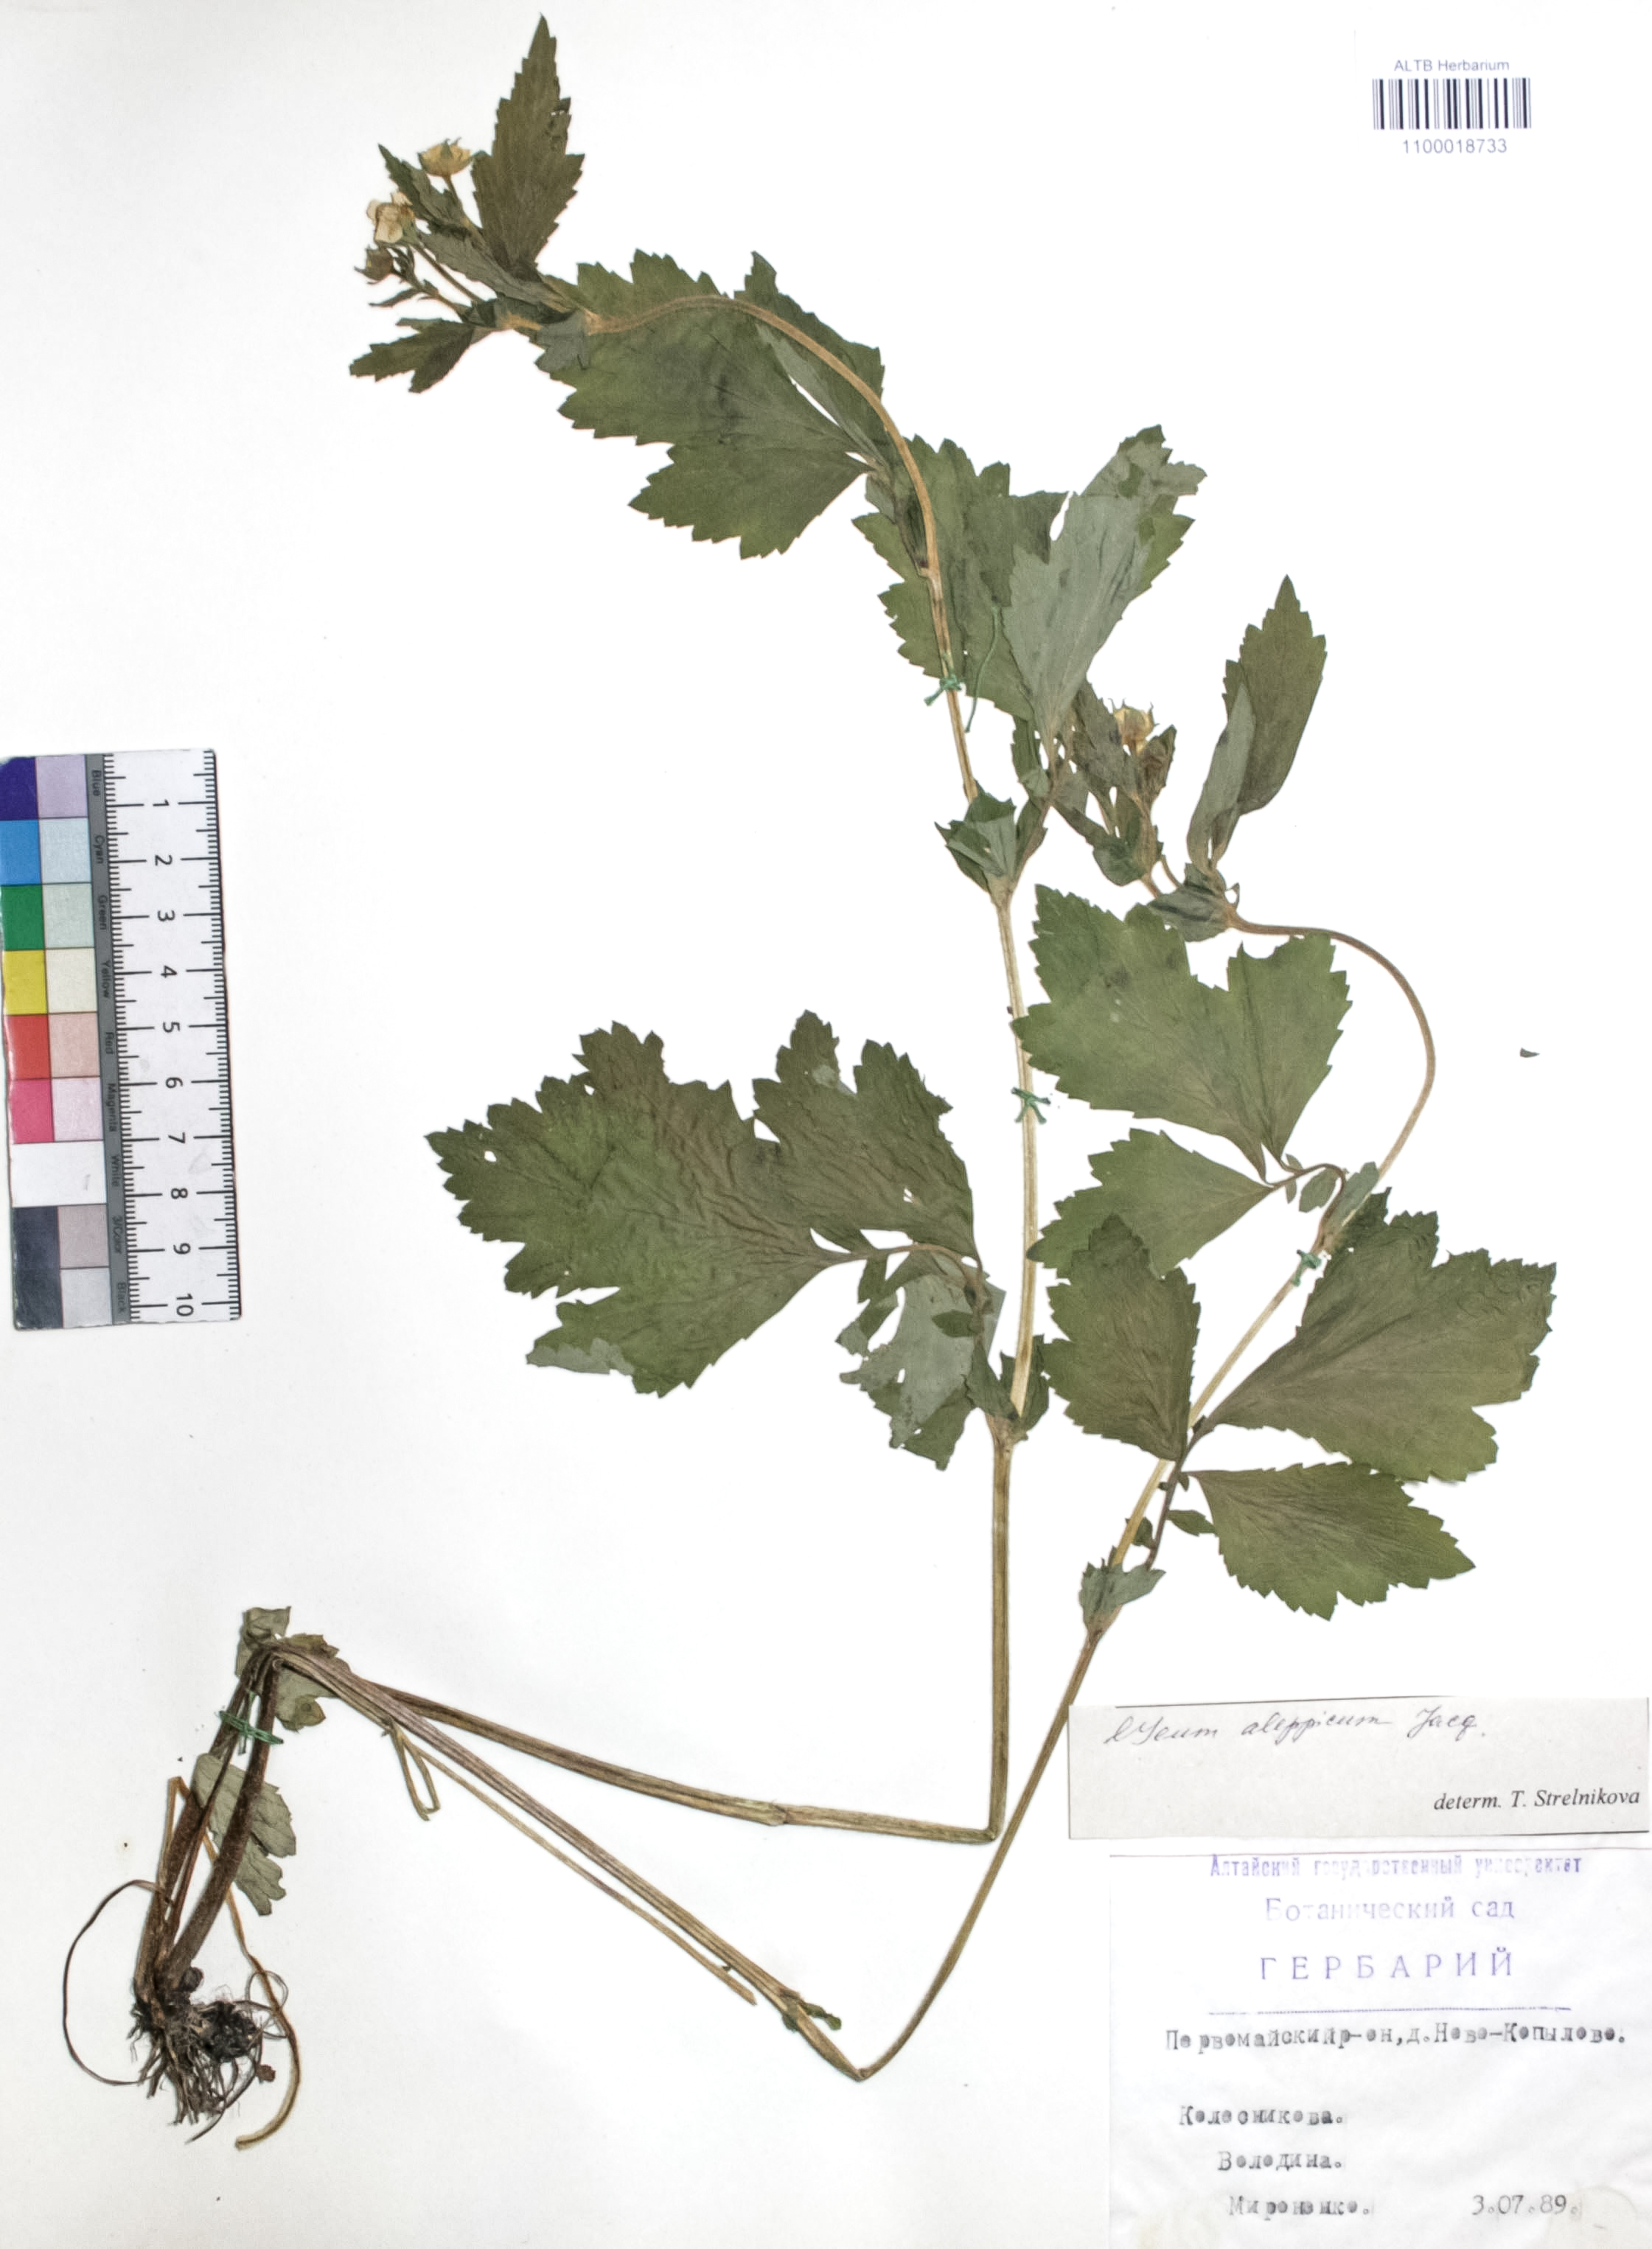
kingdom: Plantae
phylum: Tracheophyta
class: Magnoliopsida
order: Rosales
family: Rosaceae
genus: Geum
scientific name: Geum aleppicum
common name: Yellow avens
